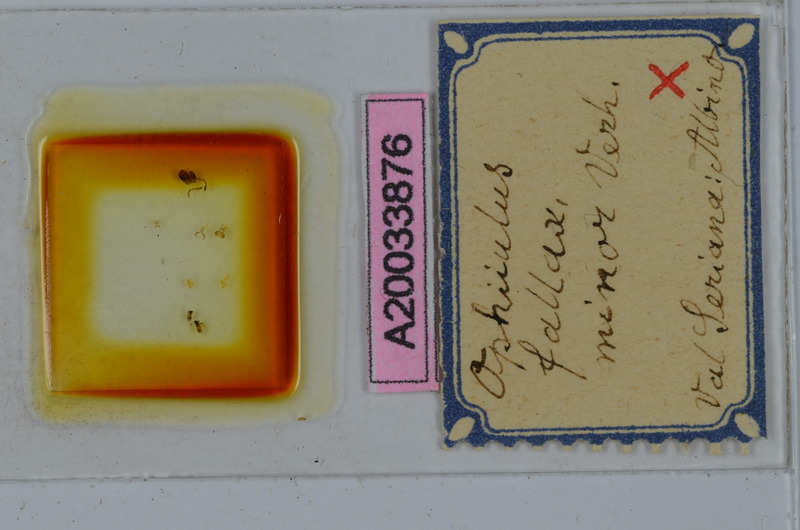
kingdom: Animalia
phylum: Arthropoda
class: Diplopoda
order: Julida
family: Julidae
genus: Ophyiulus
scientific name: Ophyiulus pilosus
